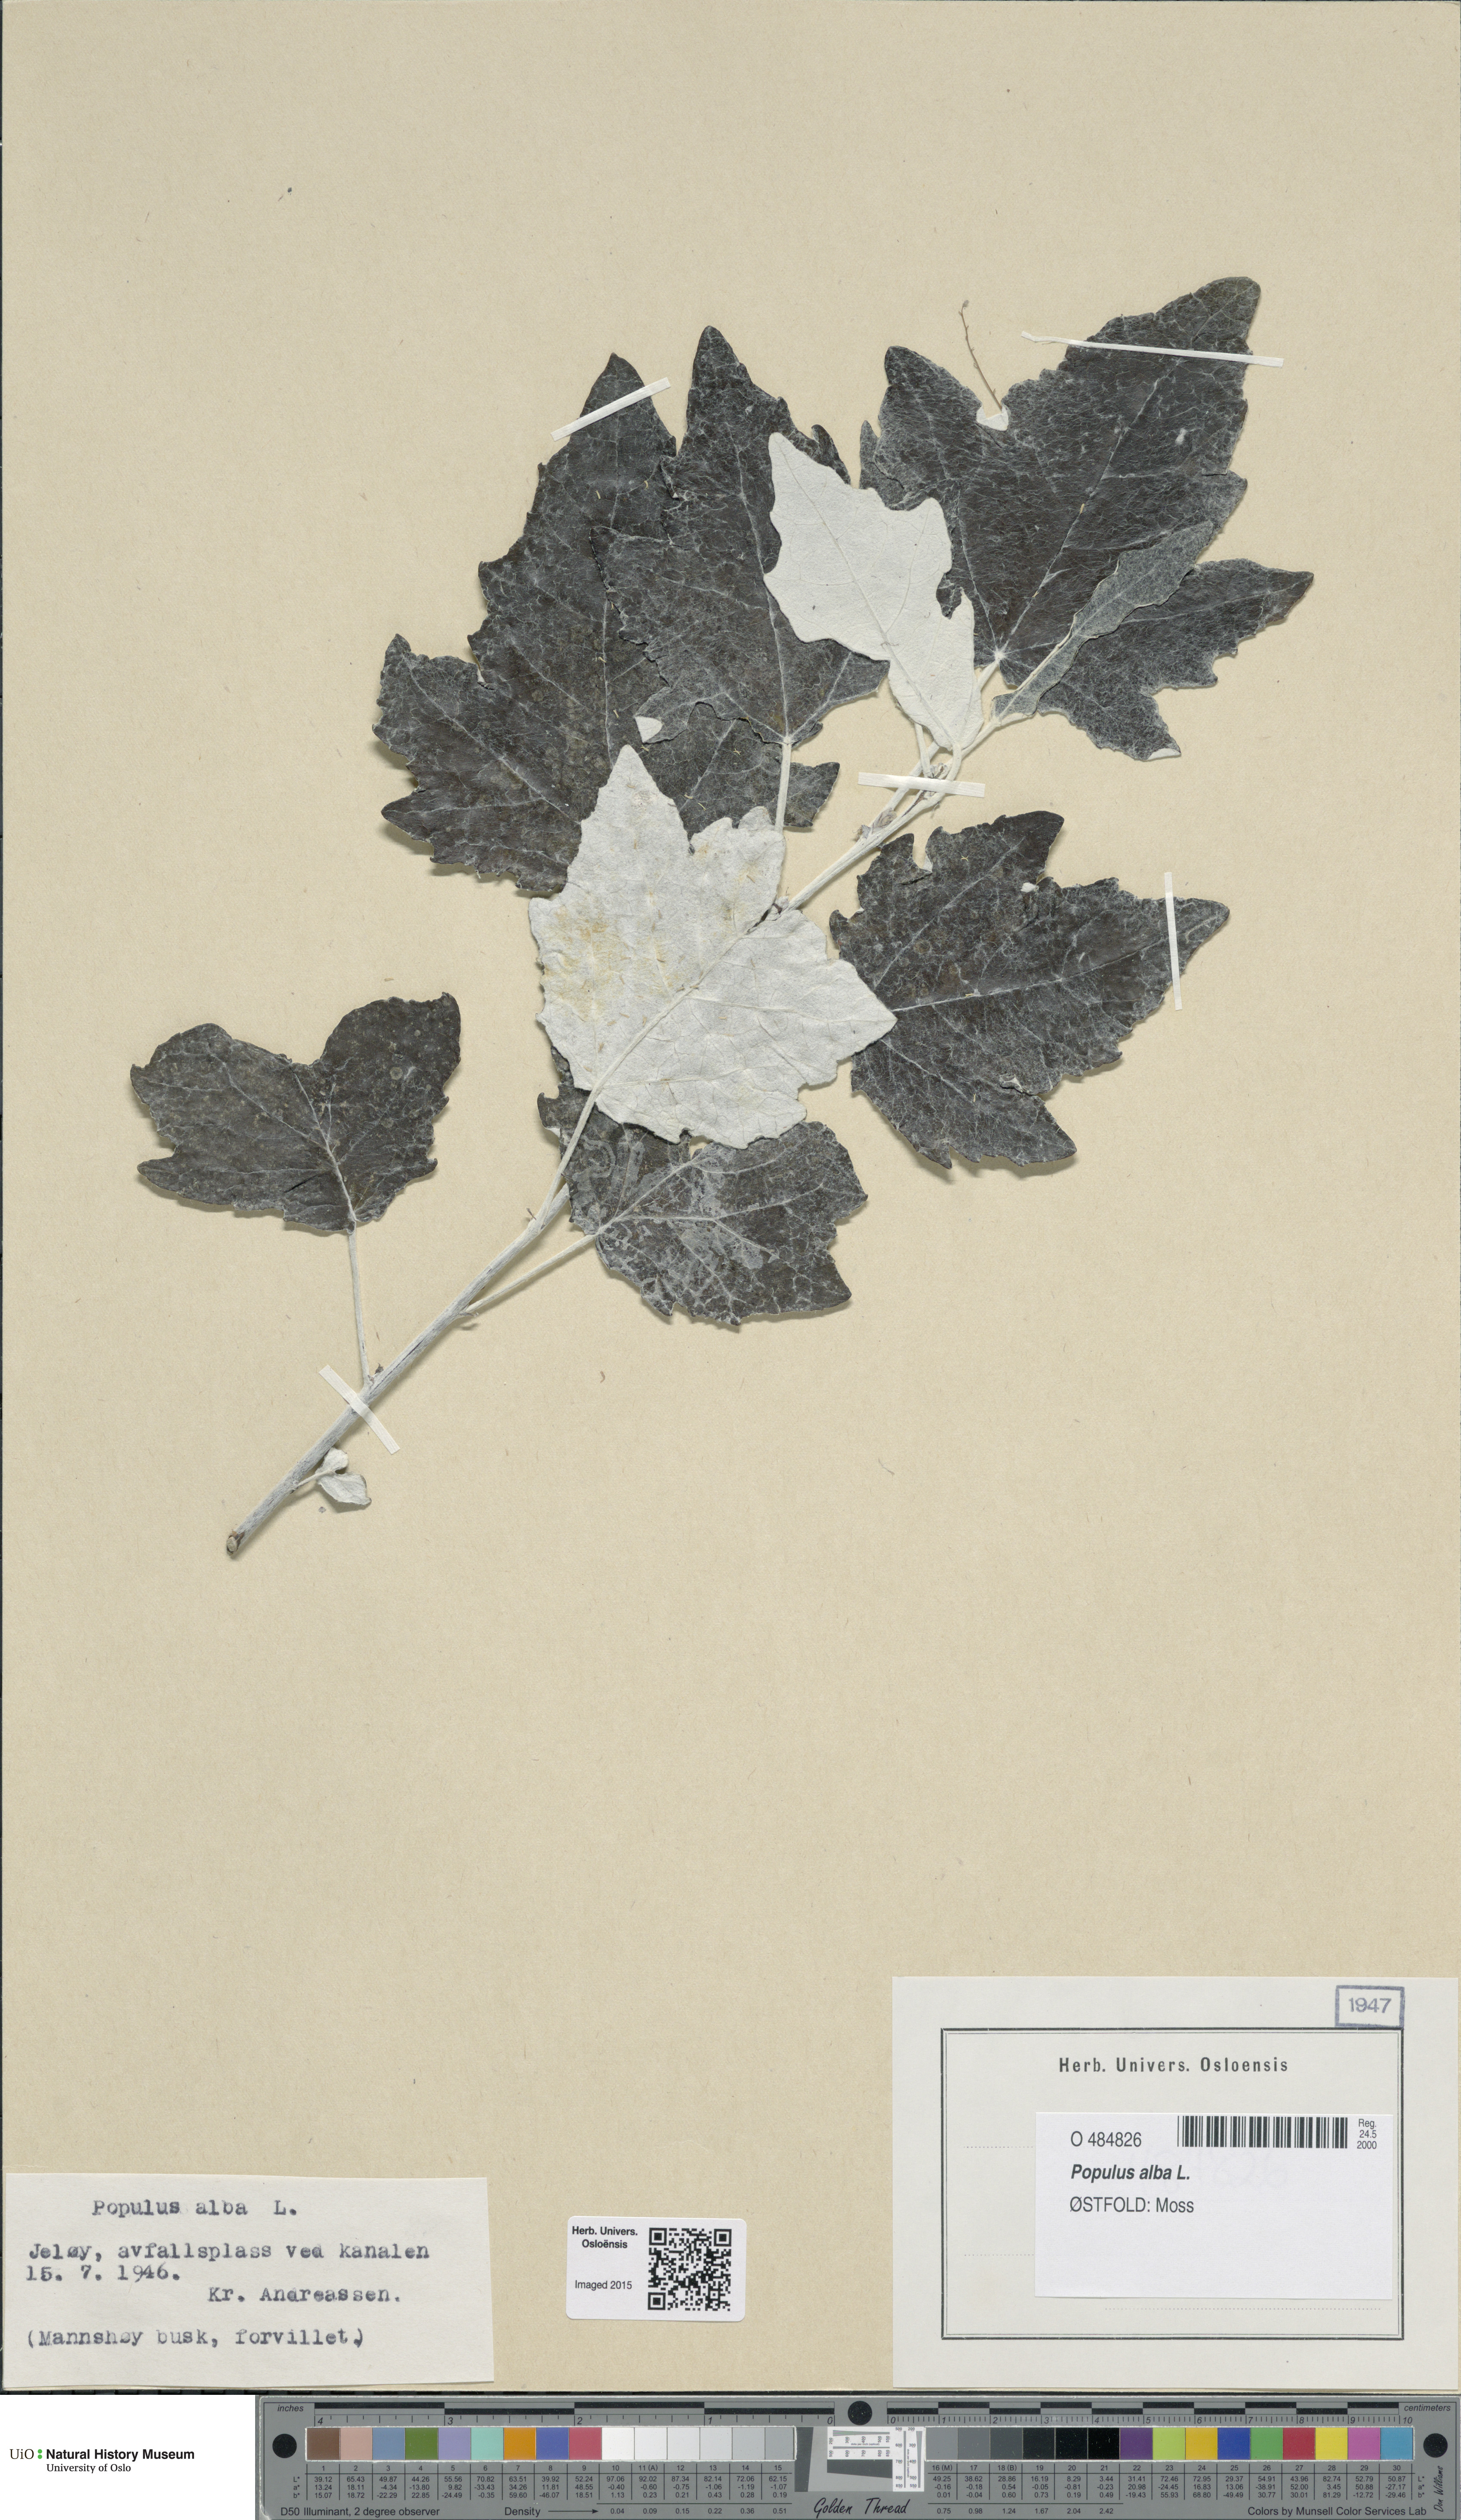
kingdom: Plantae
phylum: Tracheophyta
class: Magnoliopsida
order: Malpighiales
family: Salicaceae
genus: Populus
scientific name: Populus alba
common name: White poplar
